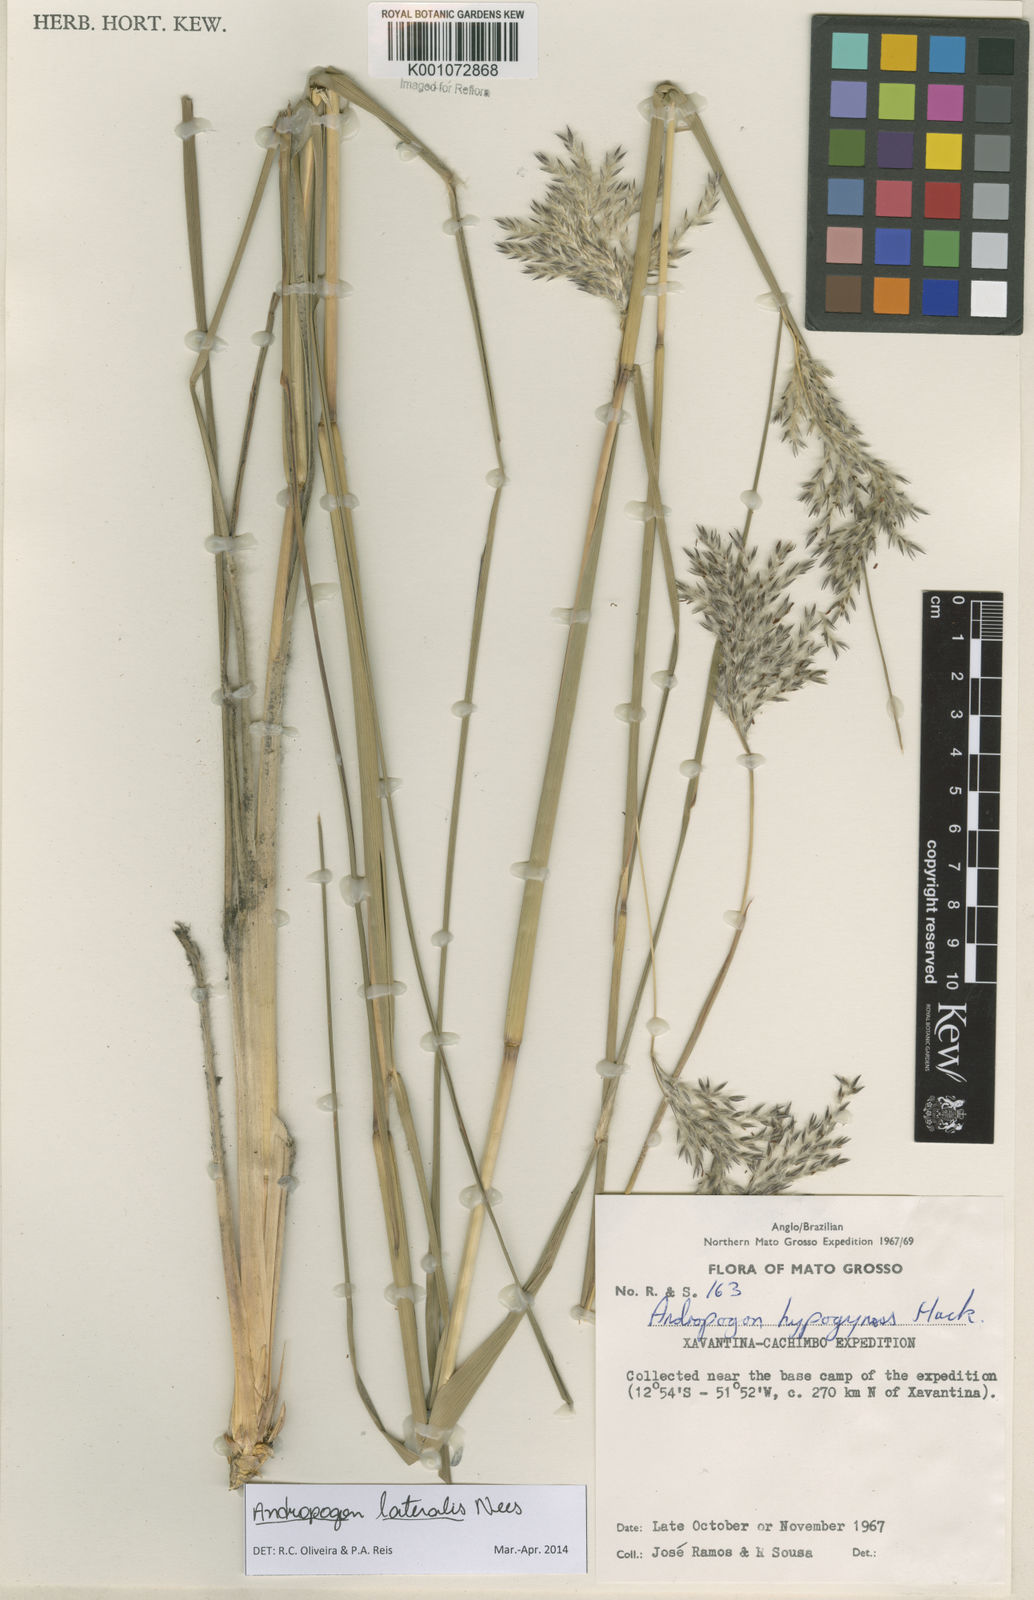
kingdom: Plantae
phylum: Tracheophyta
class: Liliopsida
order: Poales
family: Poaceae
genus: Andropogon
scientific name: Andropogon lateralis
